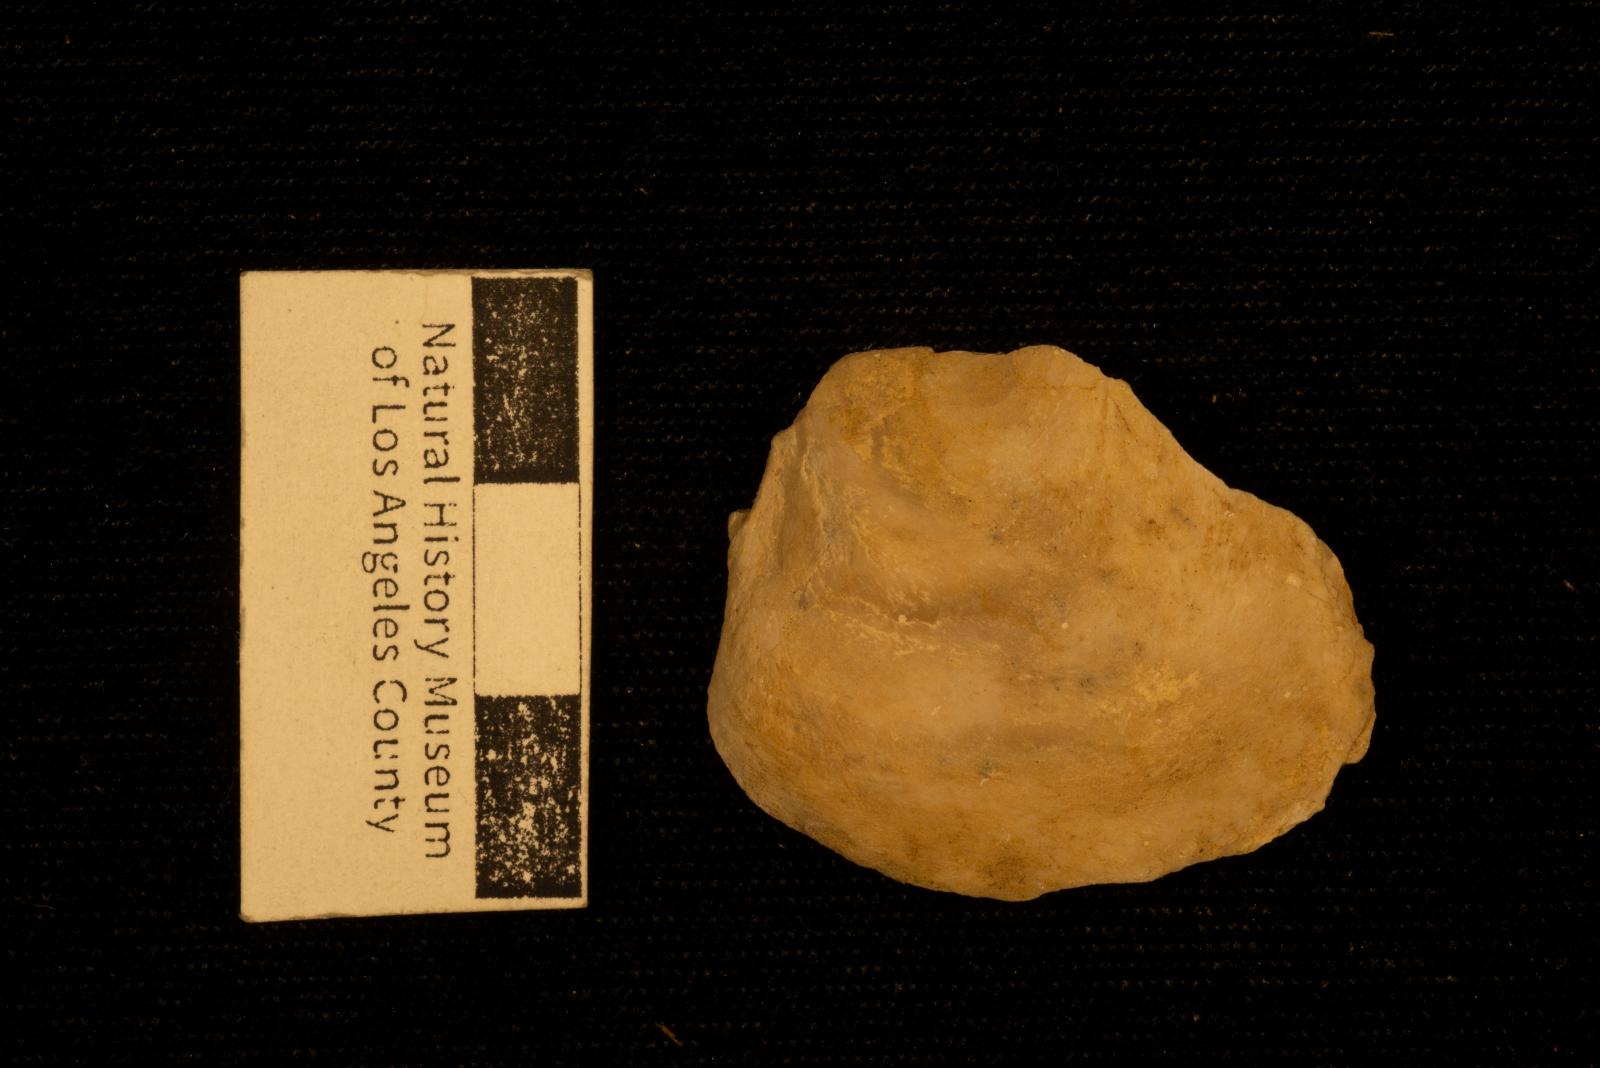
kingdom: Animalia
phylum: Mollusca
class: Bivalvia
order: Ostreida
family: Ostreidae
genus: Acutostrea
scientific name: Acutostrea
